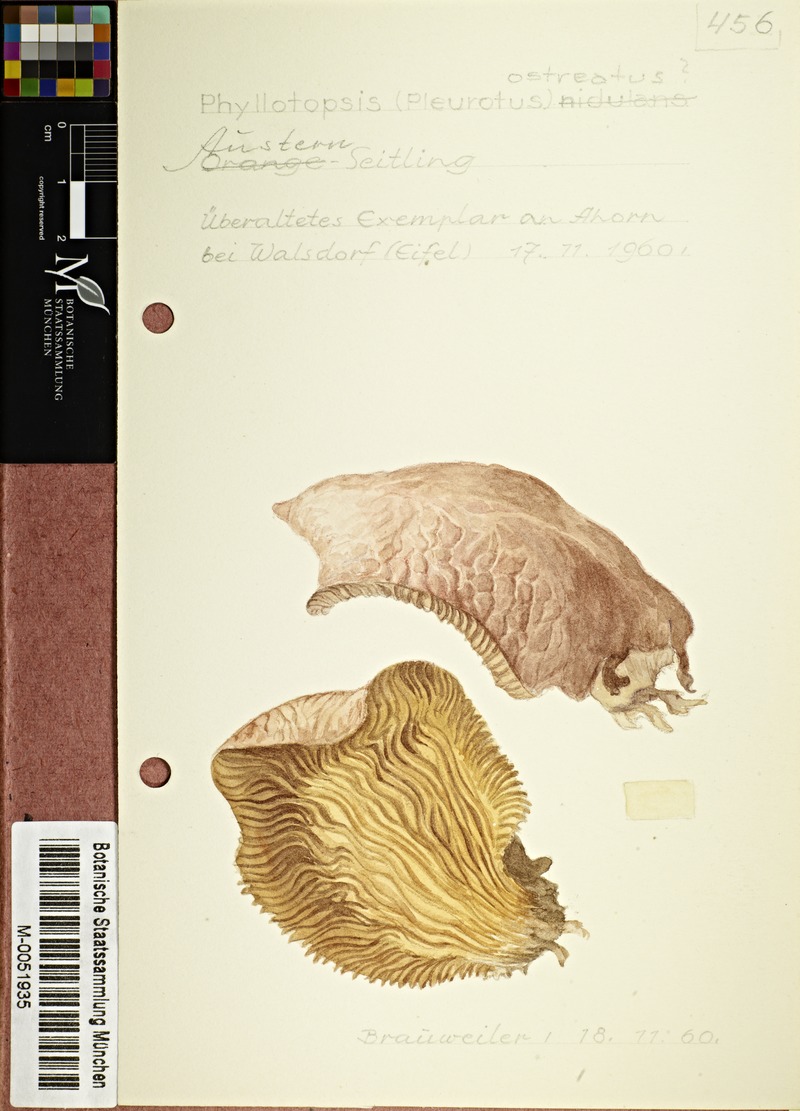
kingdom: Fungi
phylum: Basidiomycota
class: Agaricomycetes
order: Agaricales
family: Pleurotaceae
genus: Pleurotus
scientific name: Pleurotus ostreatus
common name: Oyster mushroom
